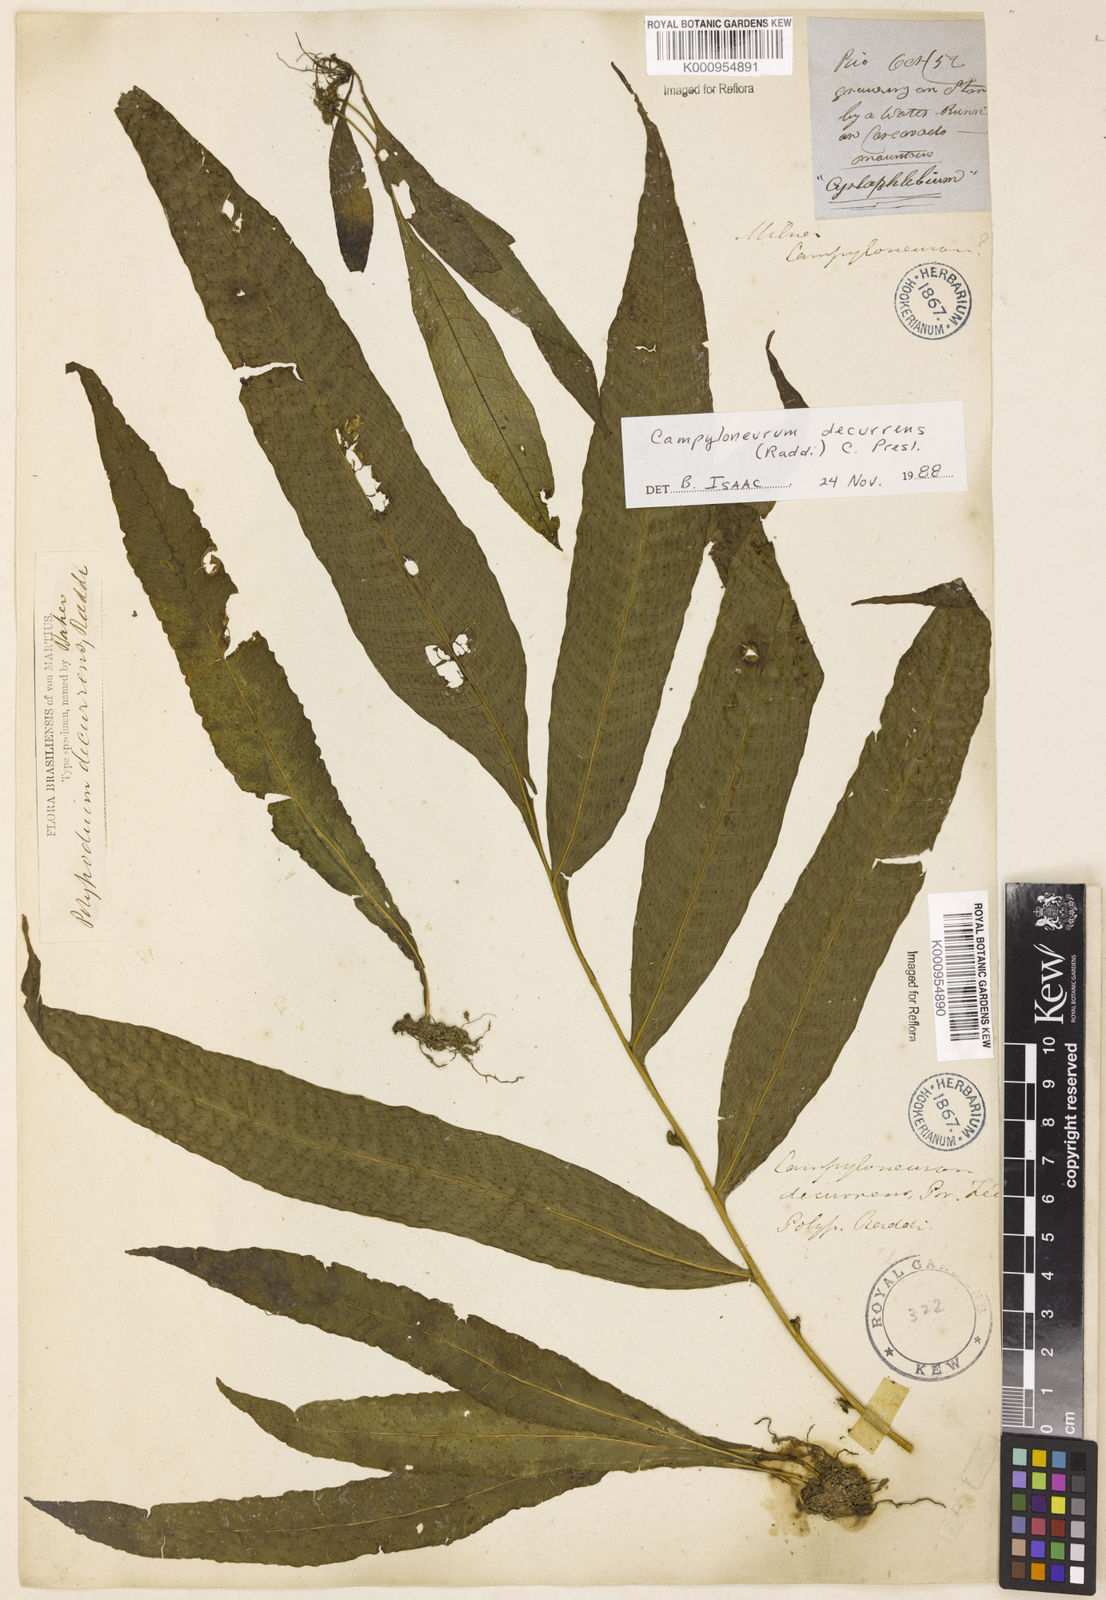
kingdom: Plantae
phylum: Tracheophyta
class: Polypodiopsida
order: Polypodiales
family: Polypodiaceae
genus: Campyloneurum
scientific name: Campyloneurum decurrens
